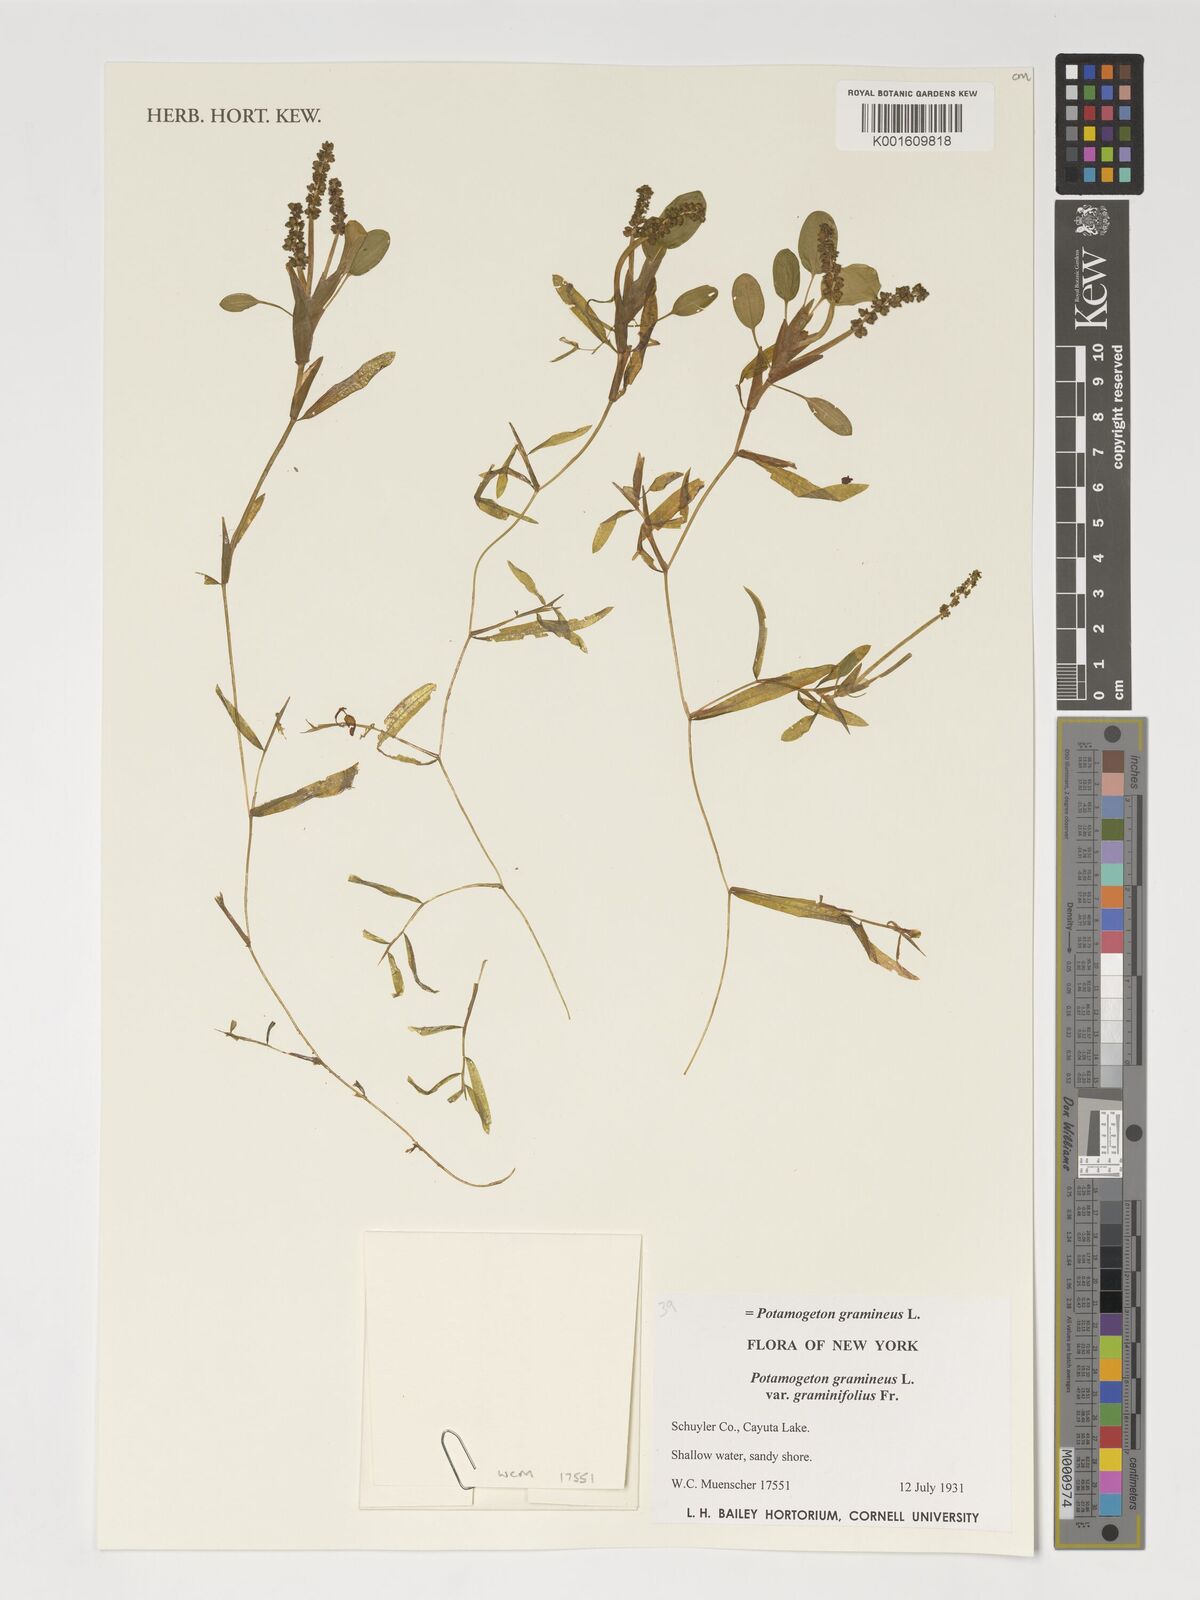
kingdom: Plantae
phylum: Tracheophyta
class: Liliopsida
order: Alismatales
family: Potamogetonaceae
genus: Potamogeton
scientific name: Potamogeton gramineus
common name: Various-leaved pondweed
